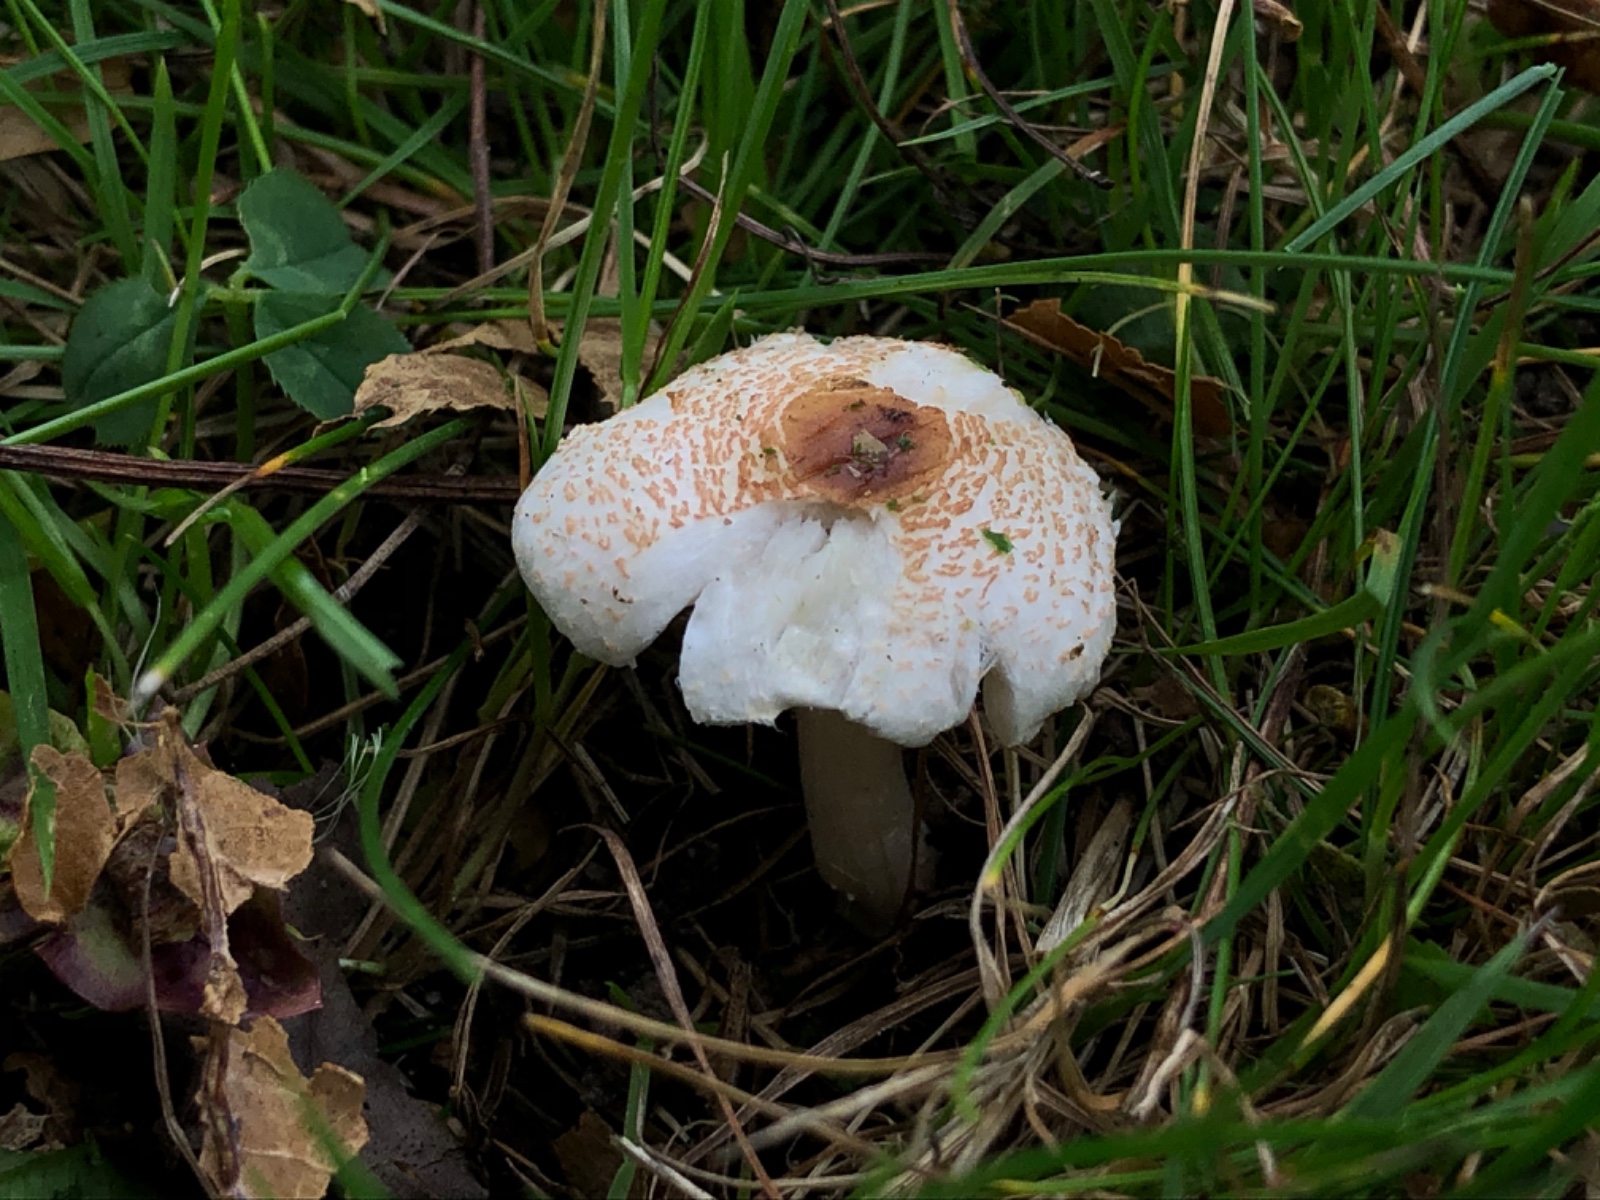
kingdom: Fungi
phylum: Basidiomycota
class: Agaricomycetes
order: Agaricales
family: Agaricaceae
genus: Lepiota
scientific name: Lepiota cristata
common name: stinkende parasolhat
